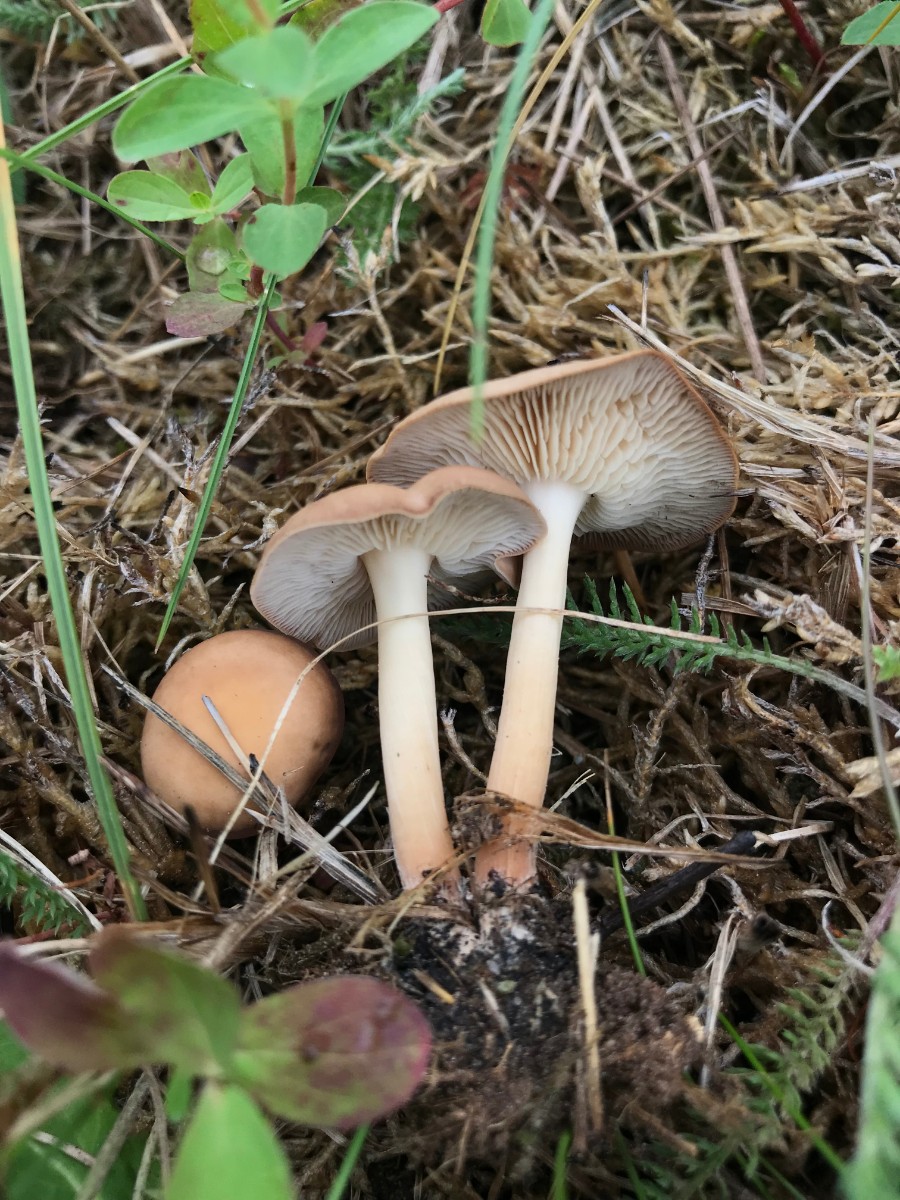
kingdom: Fungi
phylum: Basidiomycota
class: Agaricomycetes
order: Agaricales
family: Omphalotaceae
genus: Gymnopus
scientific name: Gymnopus
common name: fladhat
